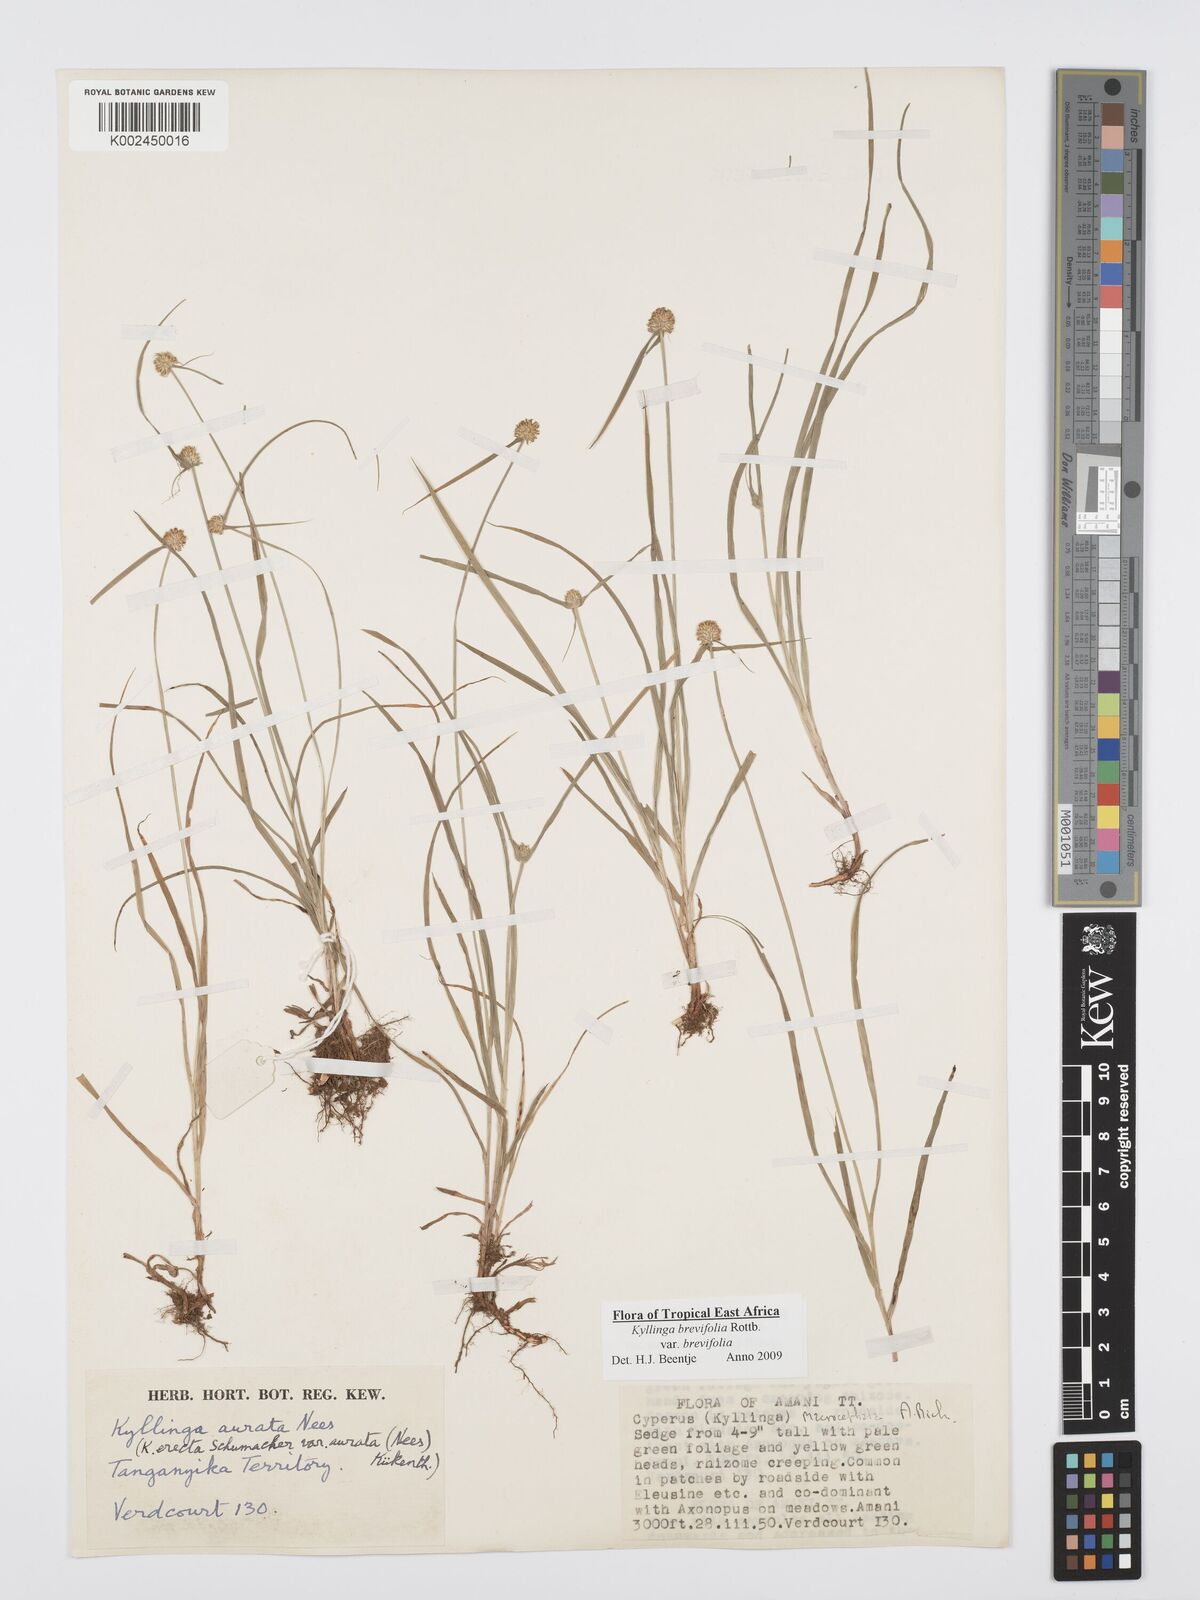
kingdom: Plantae
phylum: Tracheophyta
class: Liliopsida
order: Poales
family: Cyperaceae
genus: Cyperus
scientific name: Cyperus brevifolius
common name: Globe kyllinga
